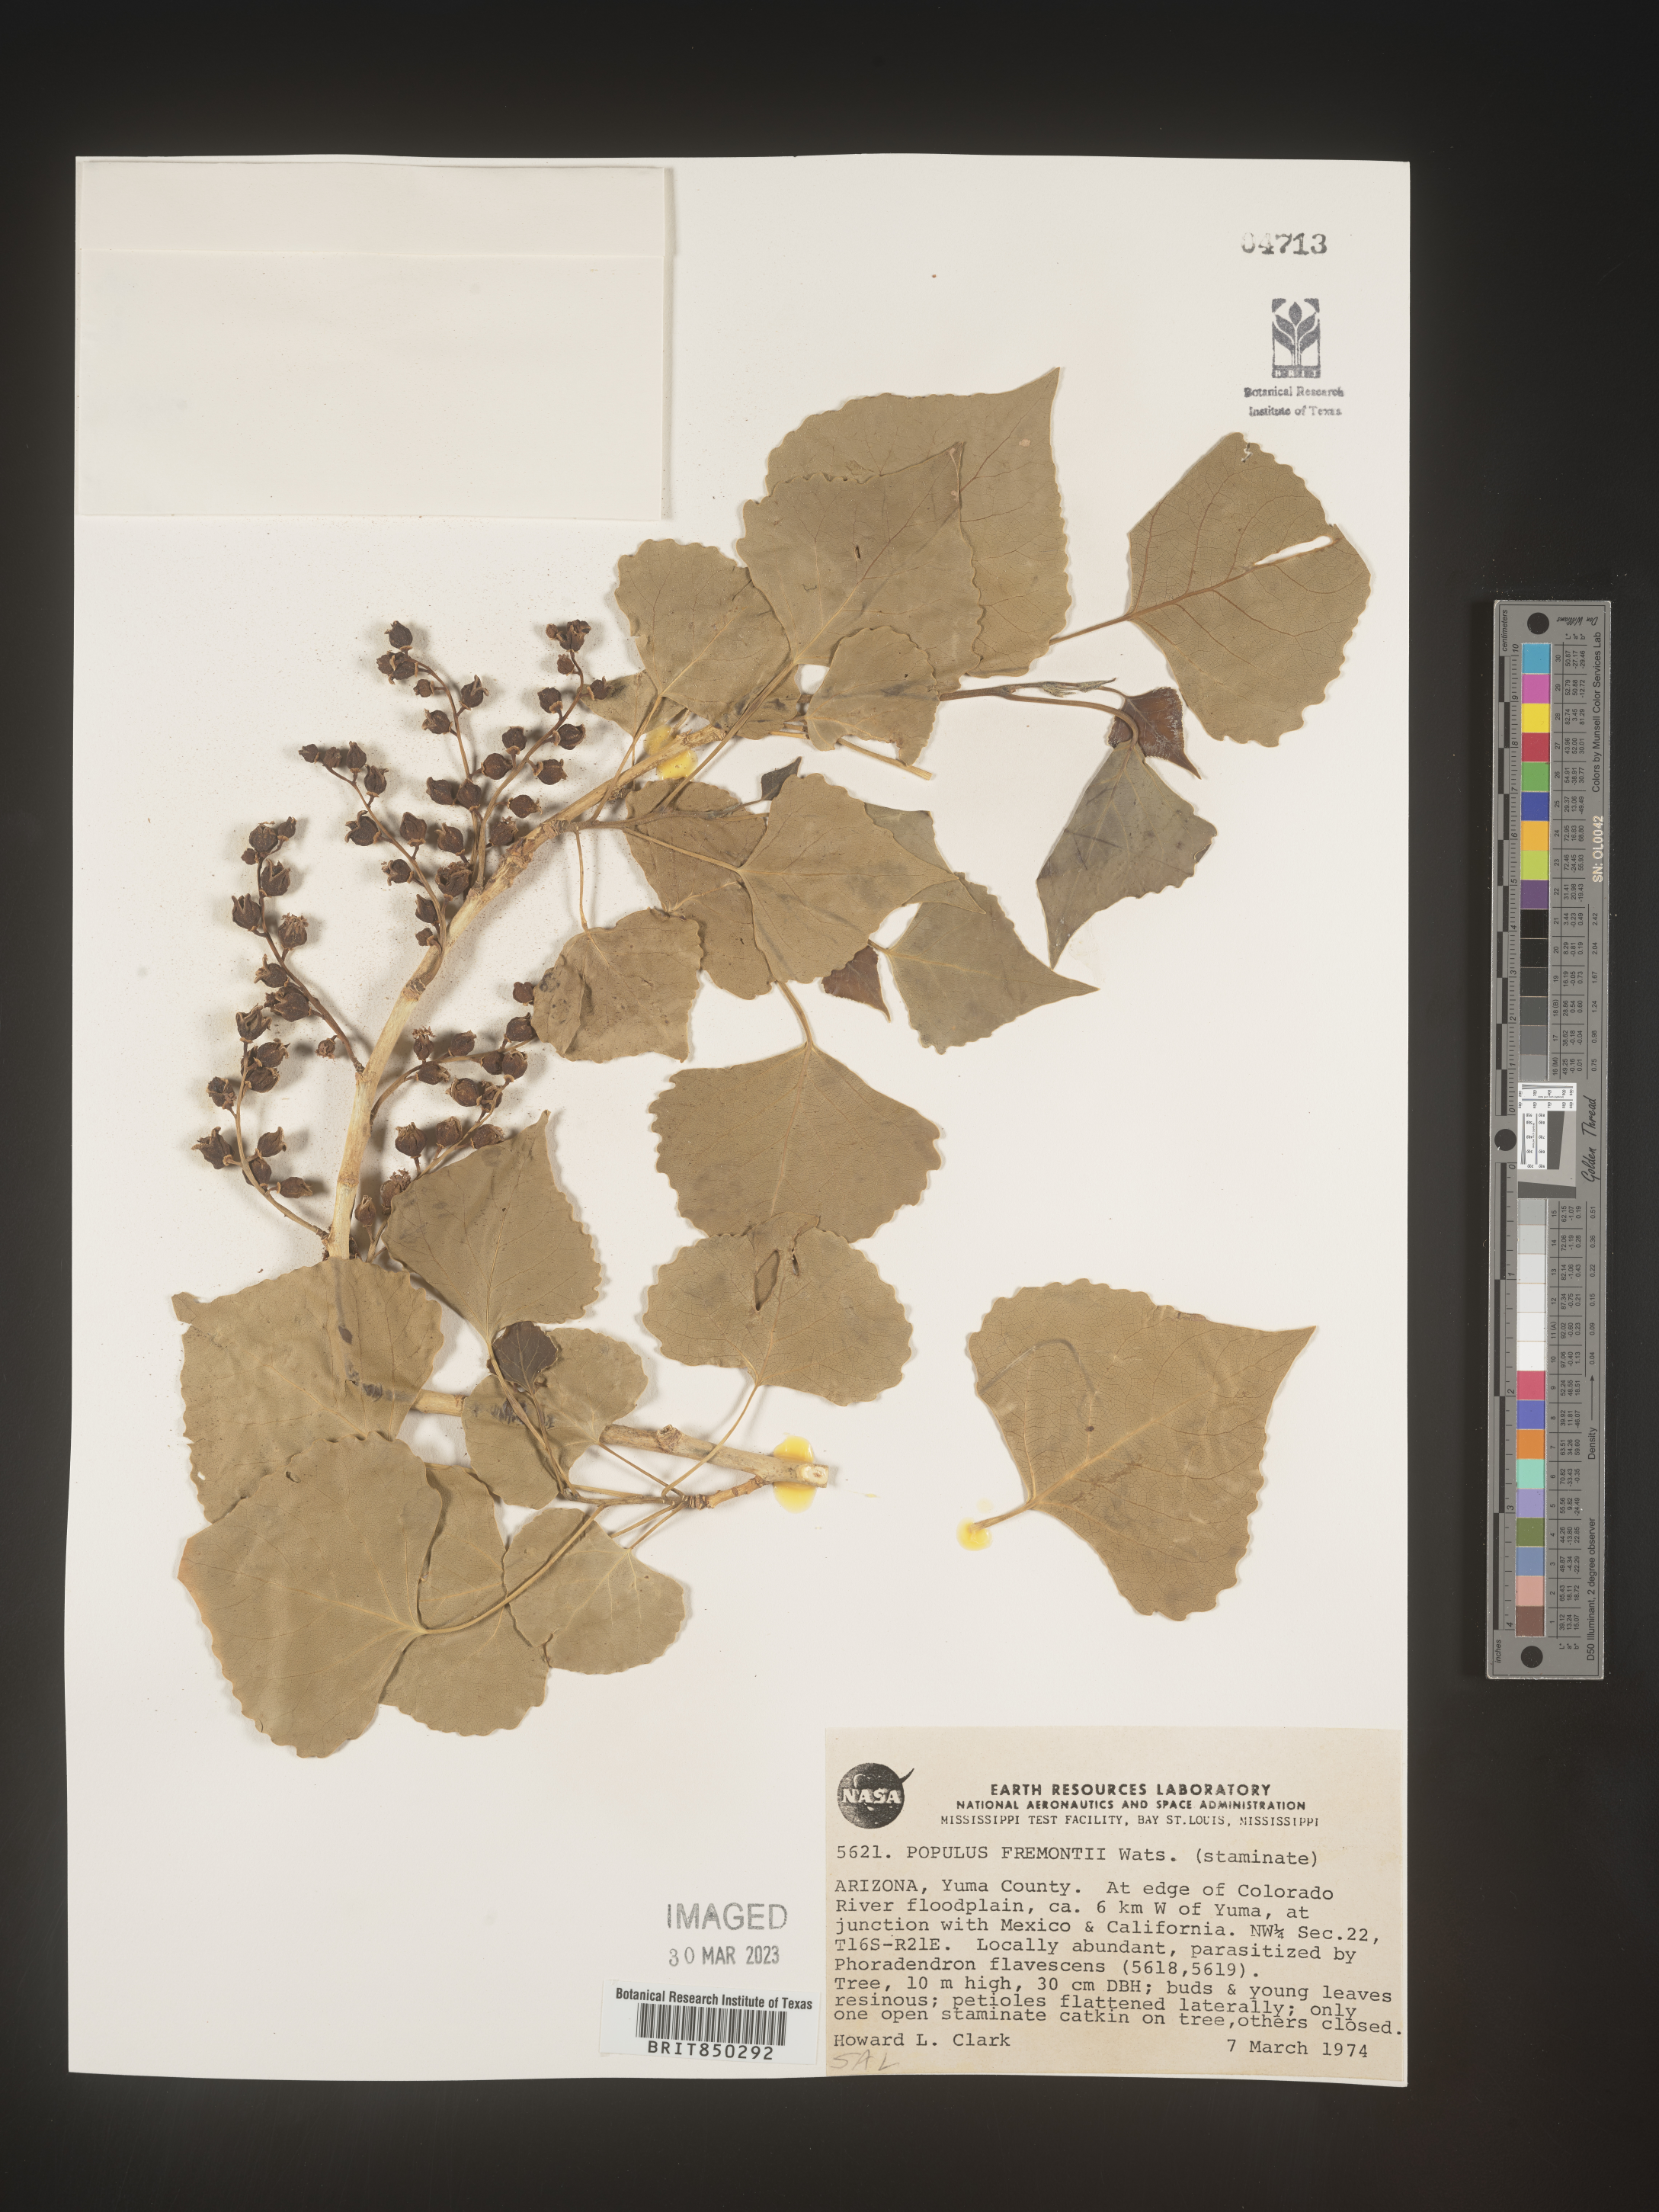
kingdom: Plantae
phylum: Tracheophyta
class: Magnoliopsida
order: Malpighiales
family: Salicaceae
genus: Populus
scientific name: Populus fremontii
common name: Fremont's cottonwood
